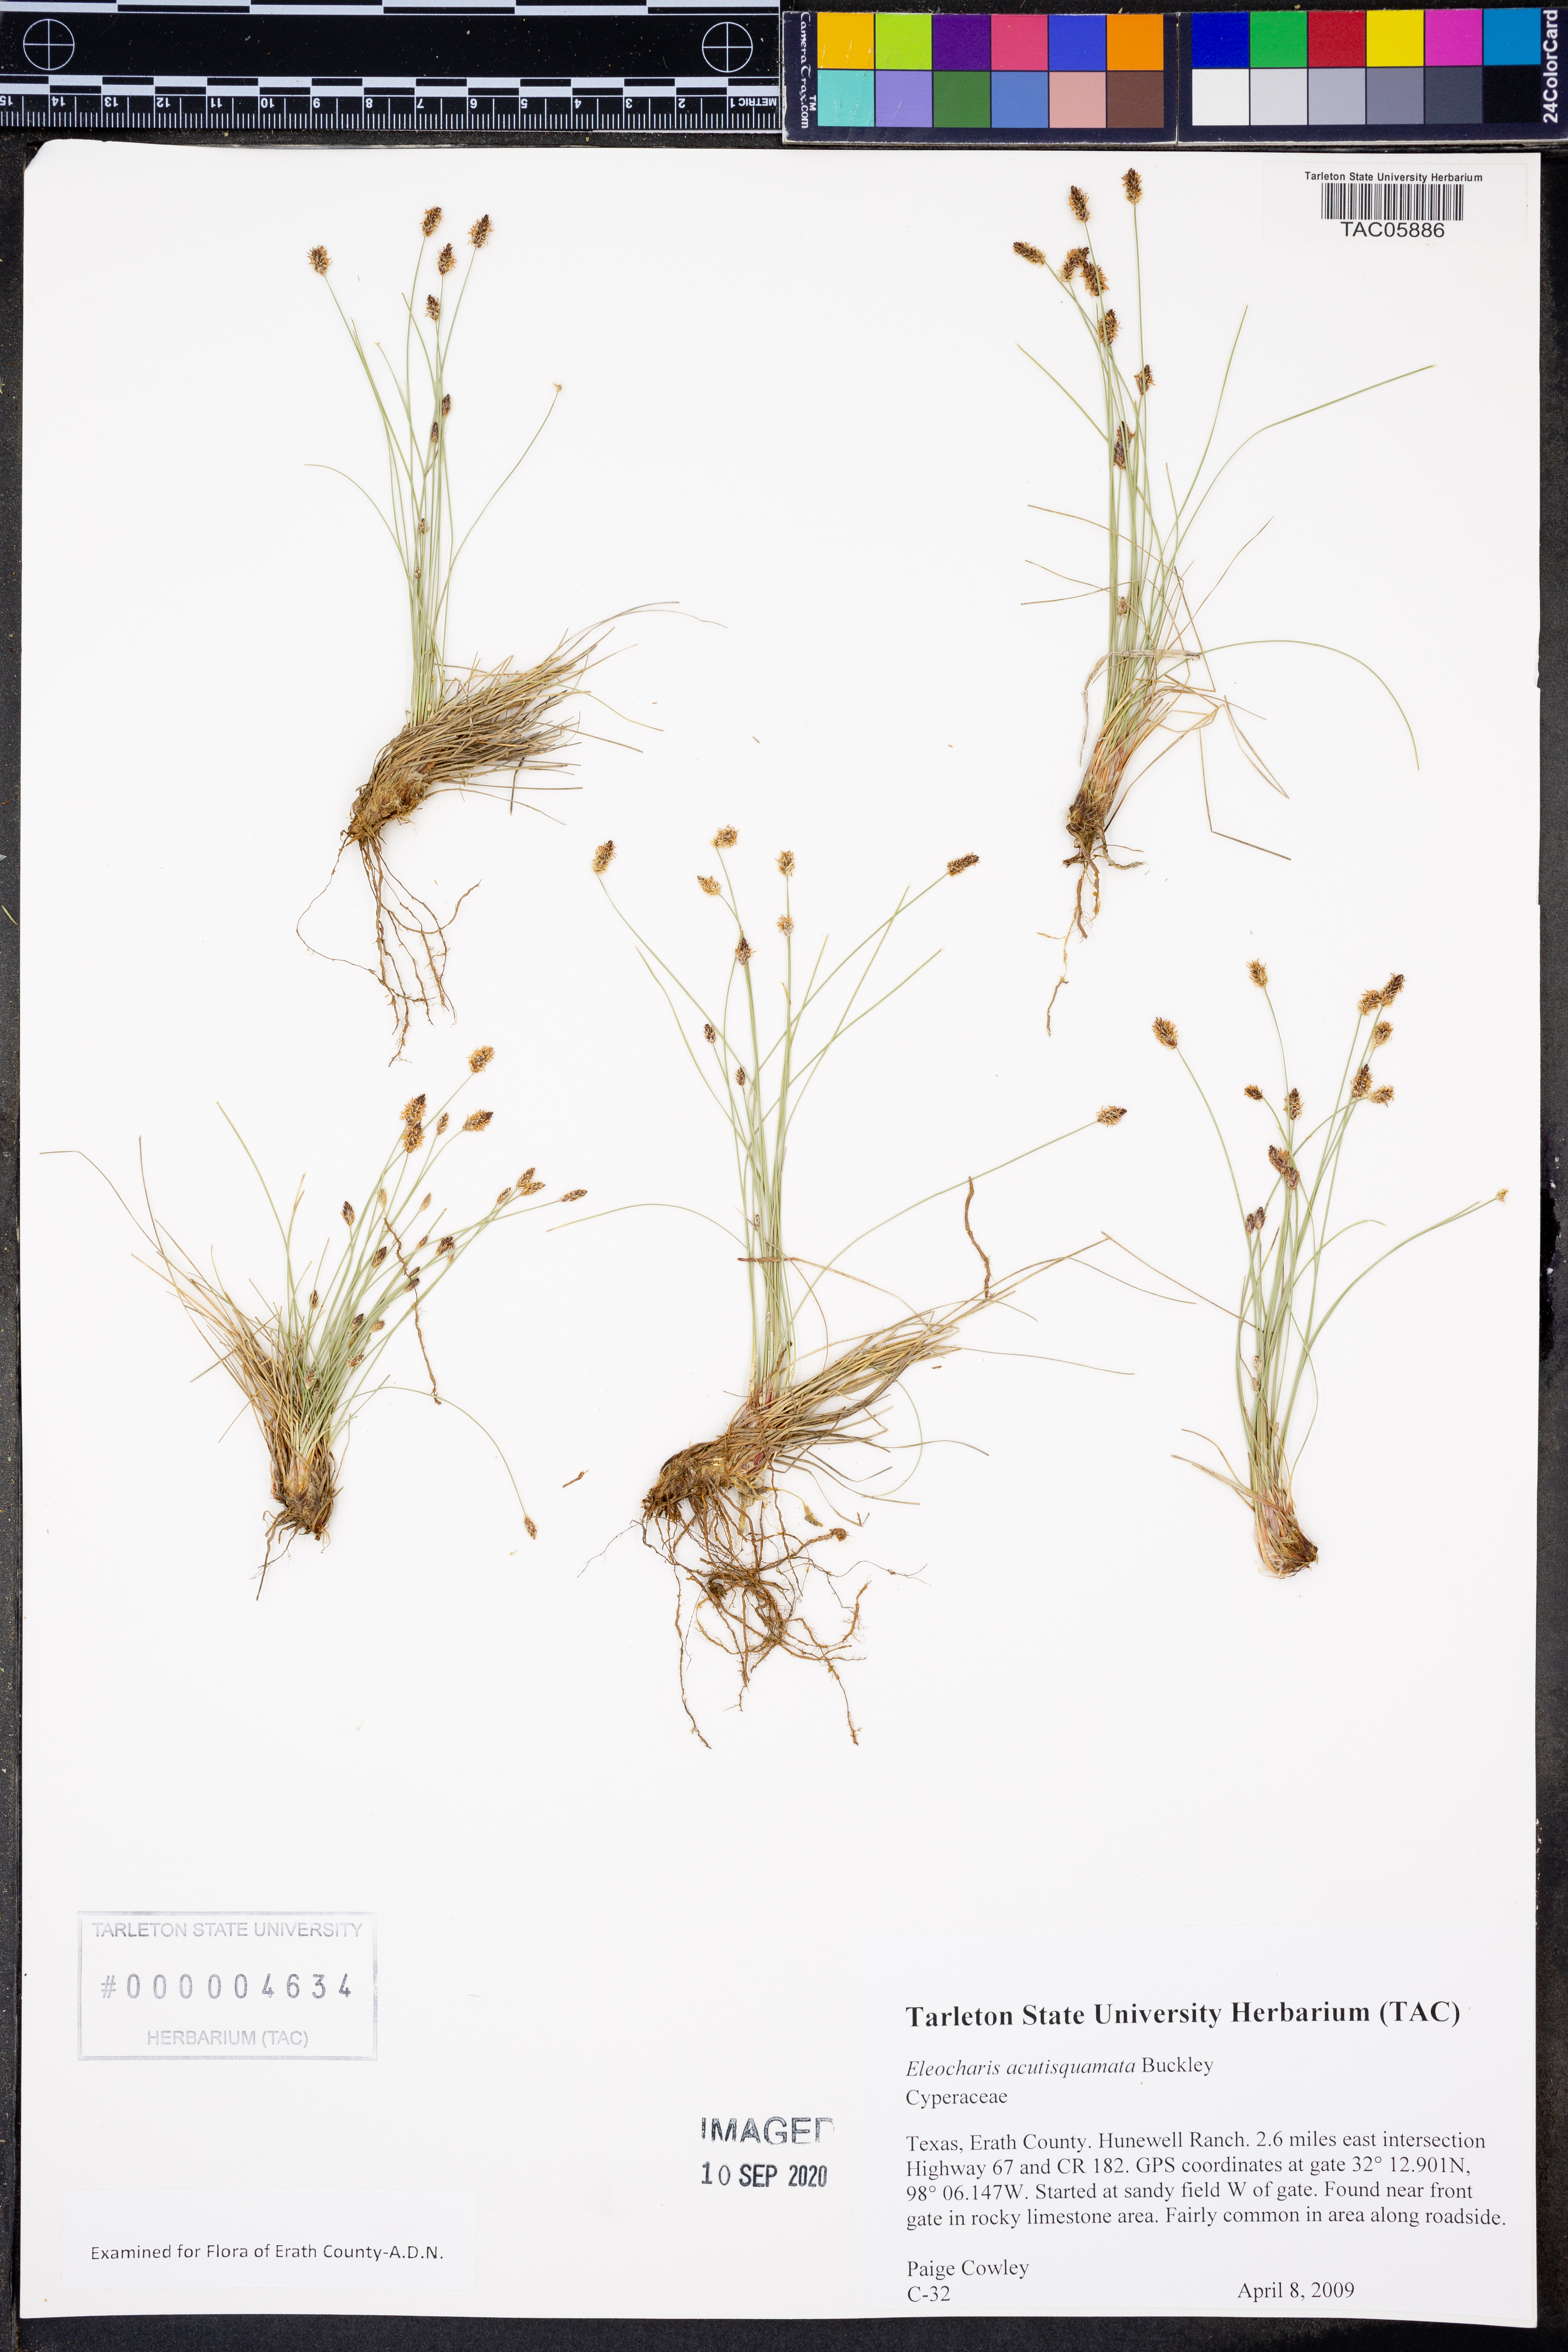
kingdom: Plantae
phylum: Tracheophyta
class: Liliopsida
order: Poales
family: Cyperaceae
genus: Eleocharis
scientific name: Eleocharis compressa
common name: Flat-stem spike-rush
